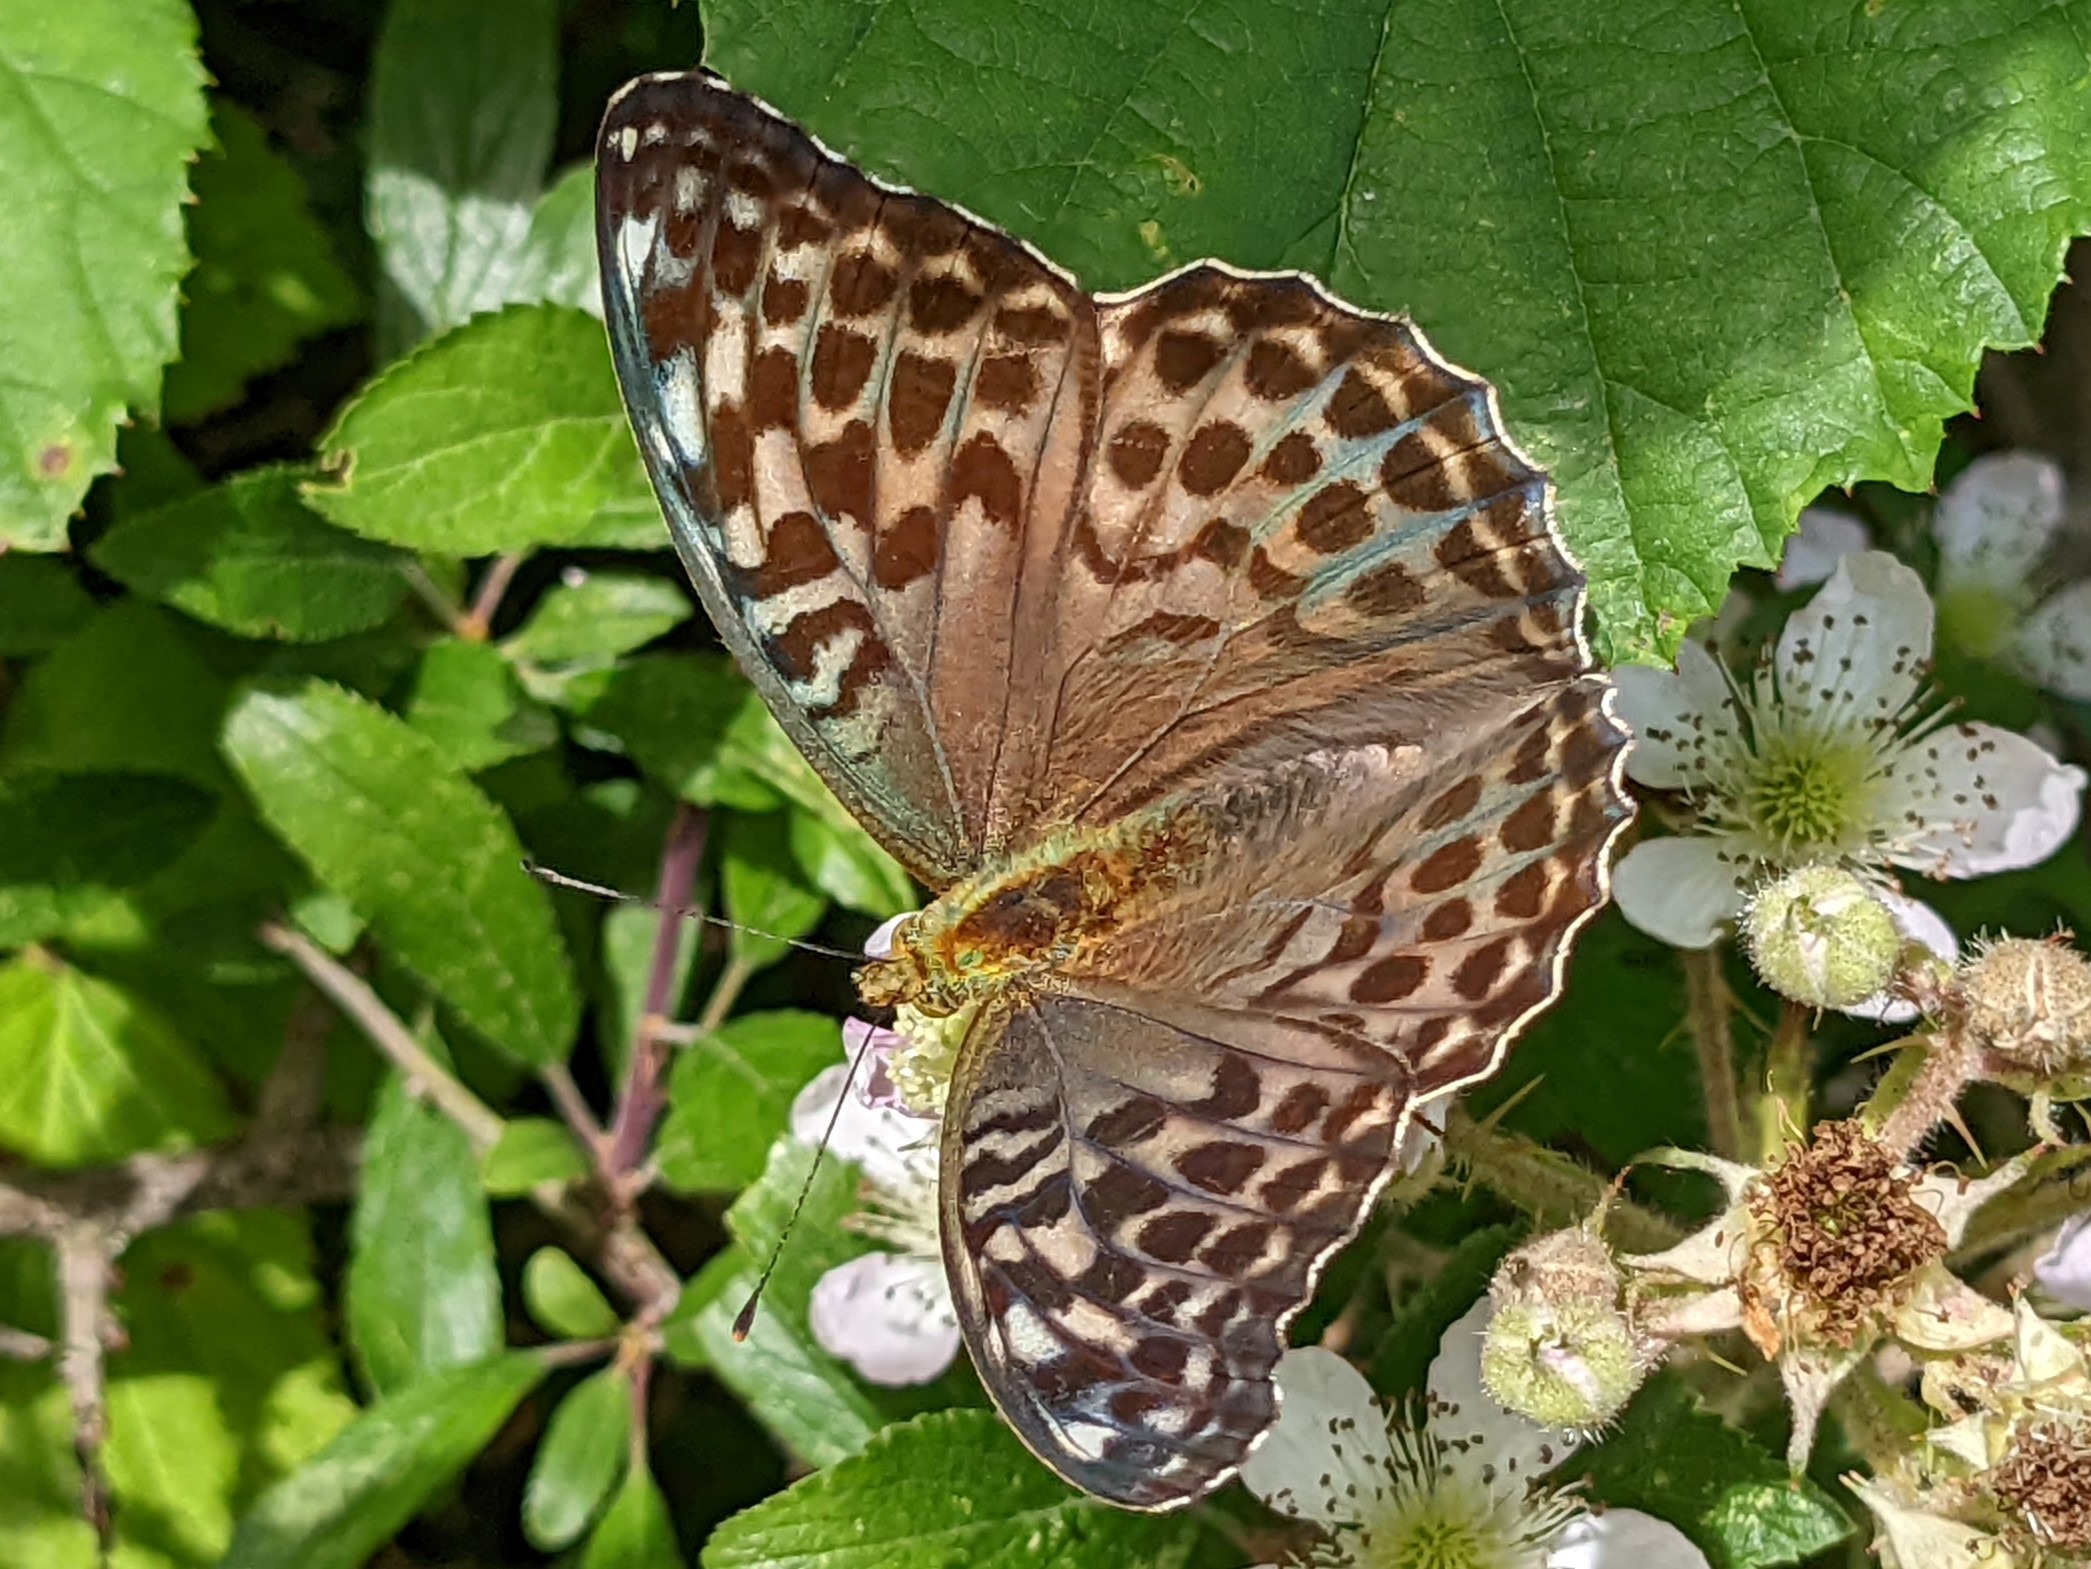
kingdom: Animalia
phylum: Arthropoda
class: Insecta
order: Lepidoptera
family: Nymphalidae
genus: Argynnis
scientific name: Argynnis paphia
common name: Kejserkåbe
